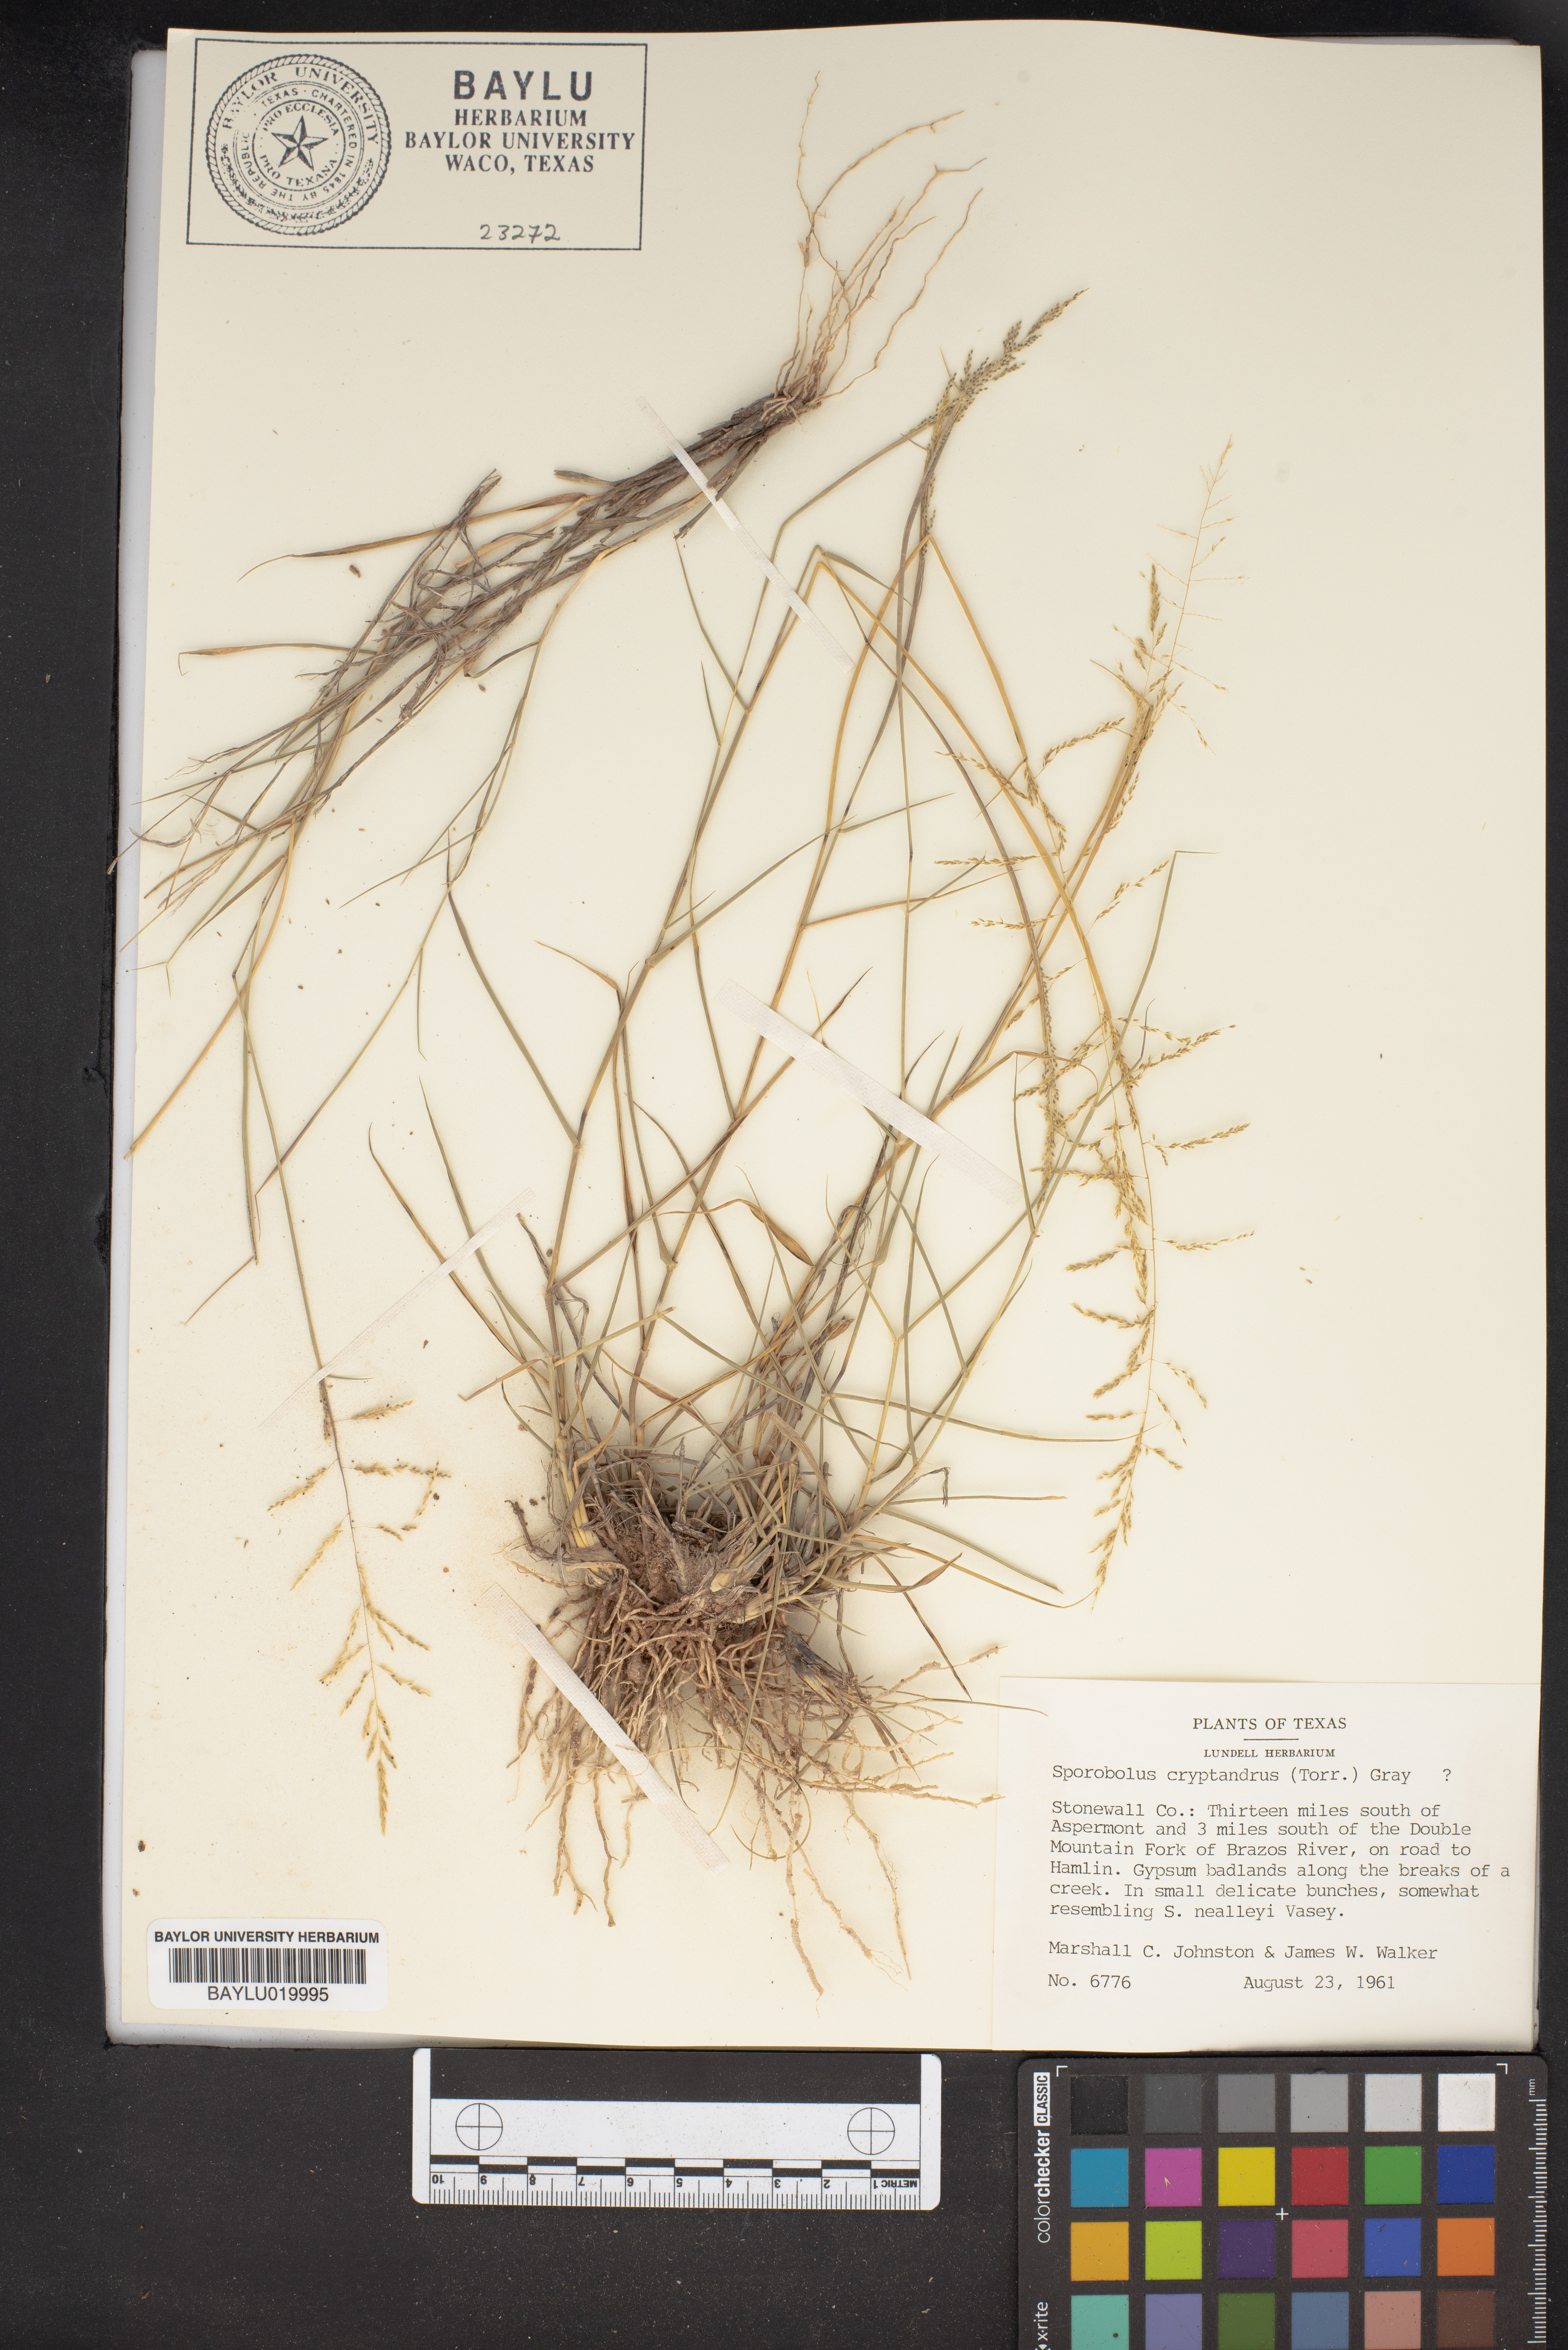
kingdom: Plantae
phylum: Tracheophyta
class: Liliopsida
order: Poales
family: Poaceae
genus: Sporobolus
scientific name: Sporobolus cryptandrus
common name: Sand dropseed
